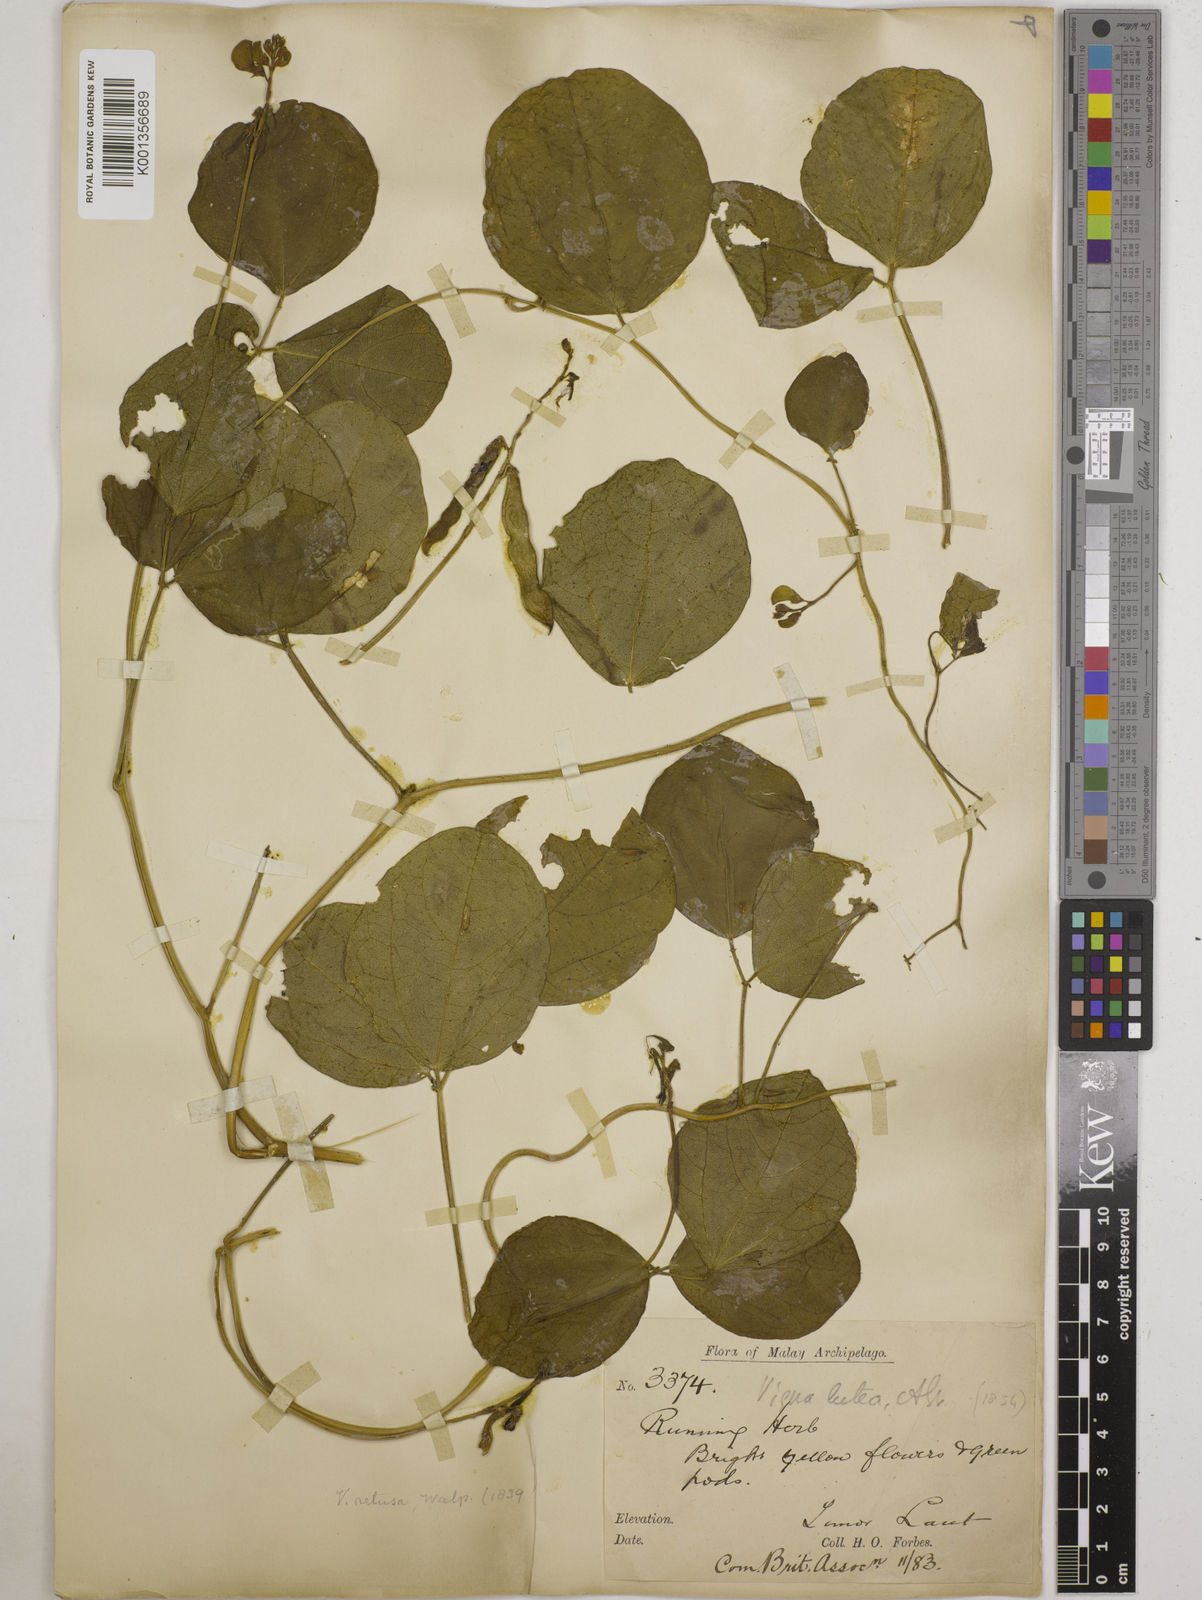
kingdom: Plantae
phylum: Tracheophyta
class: Magnoliopsida
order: Fabales
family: Fabaceae
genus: Vigna
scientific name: Vigna marina
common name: Dune-bean
